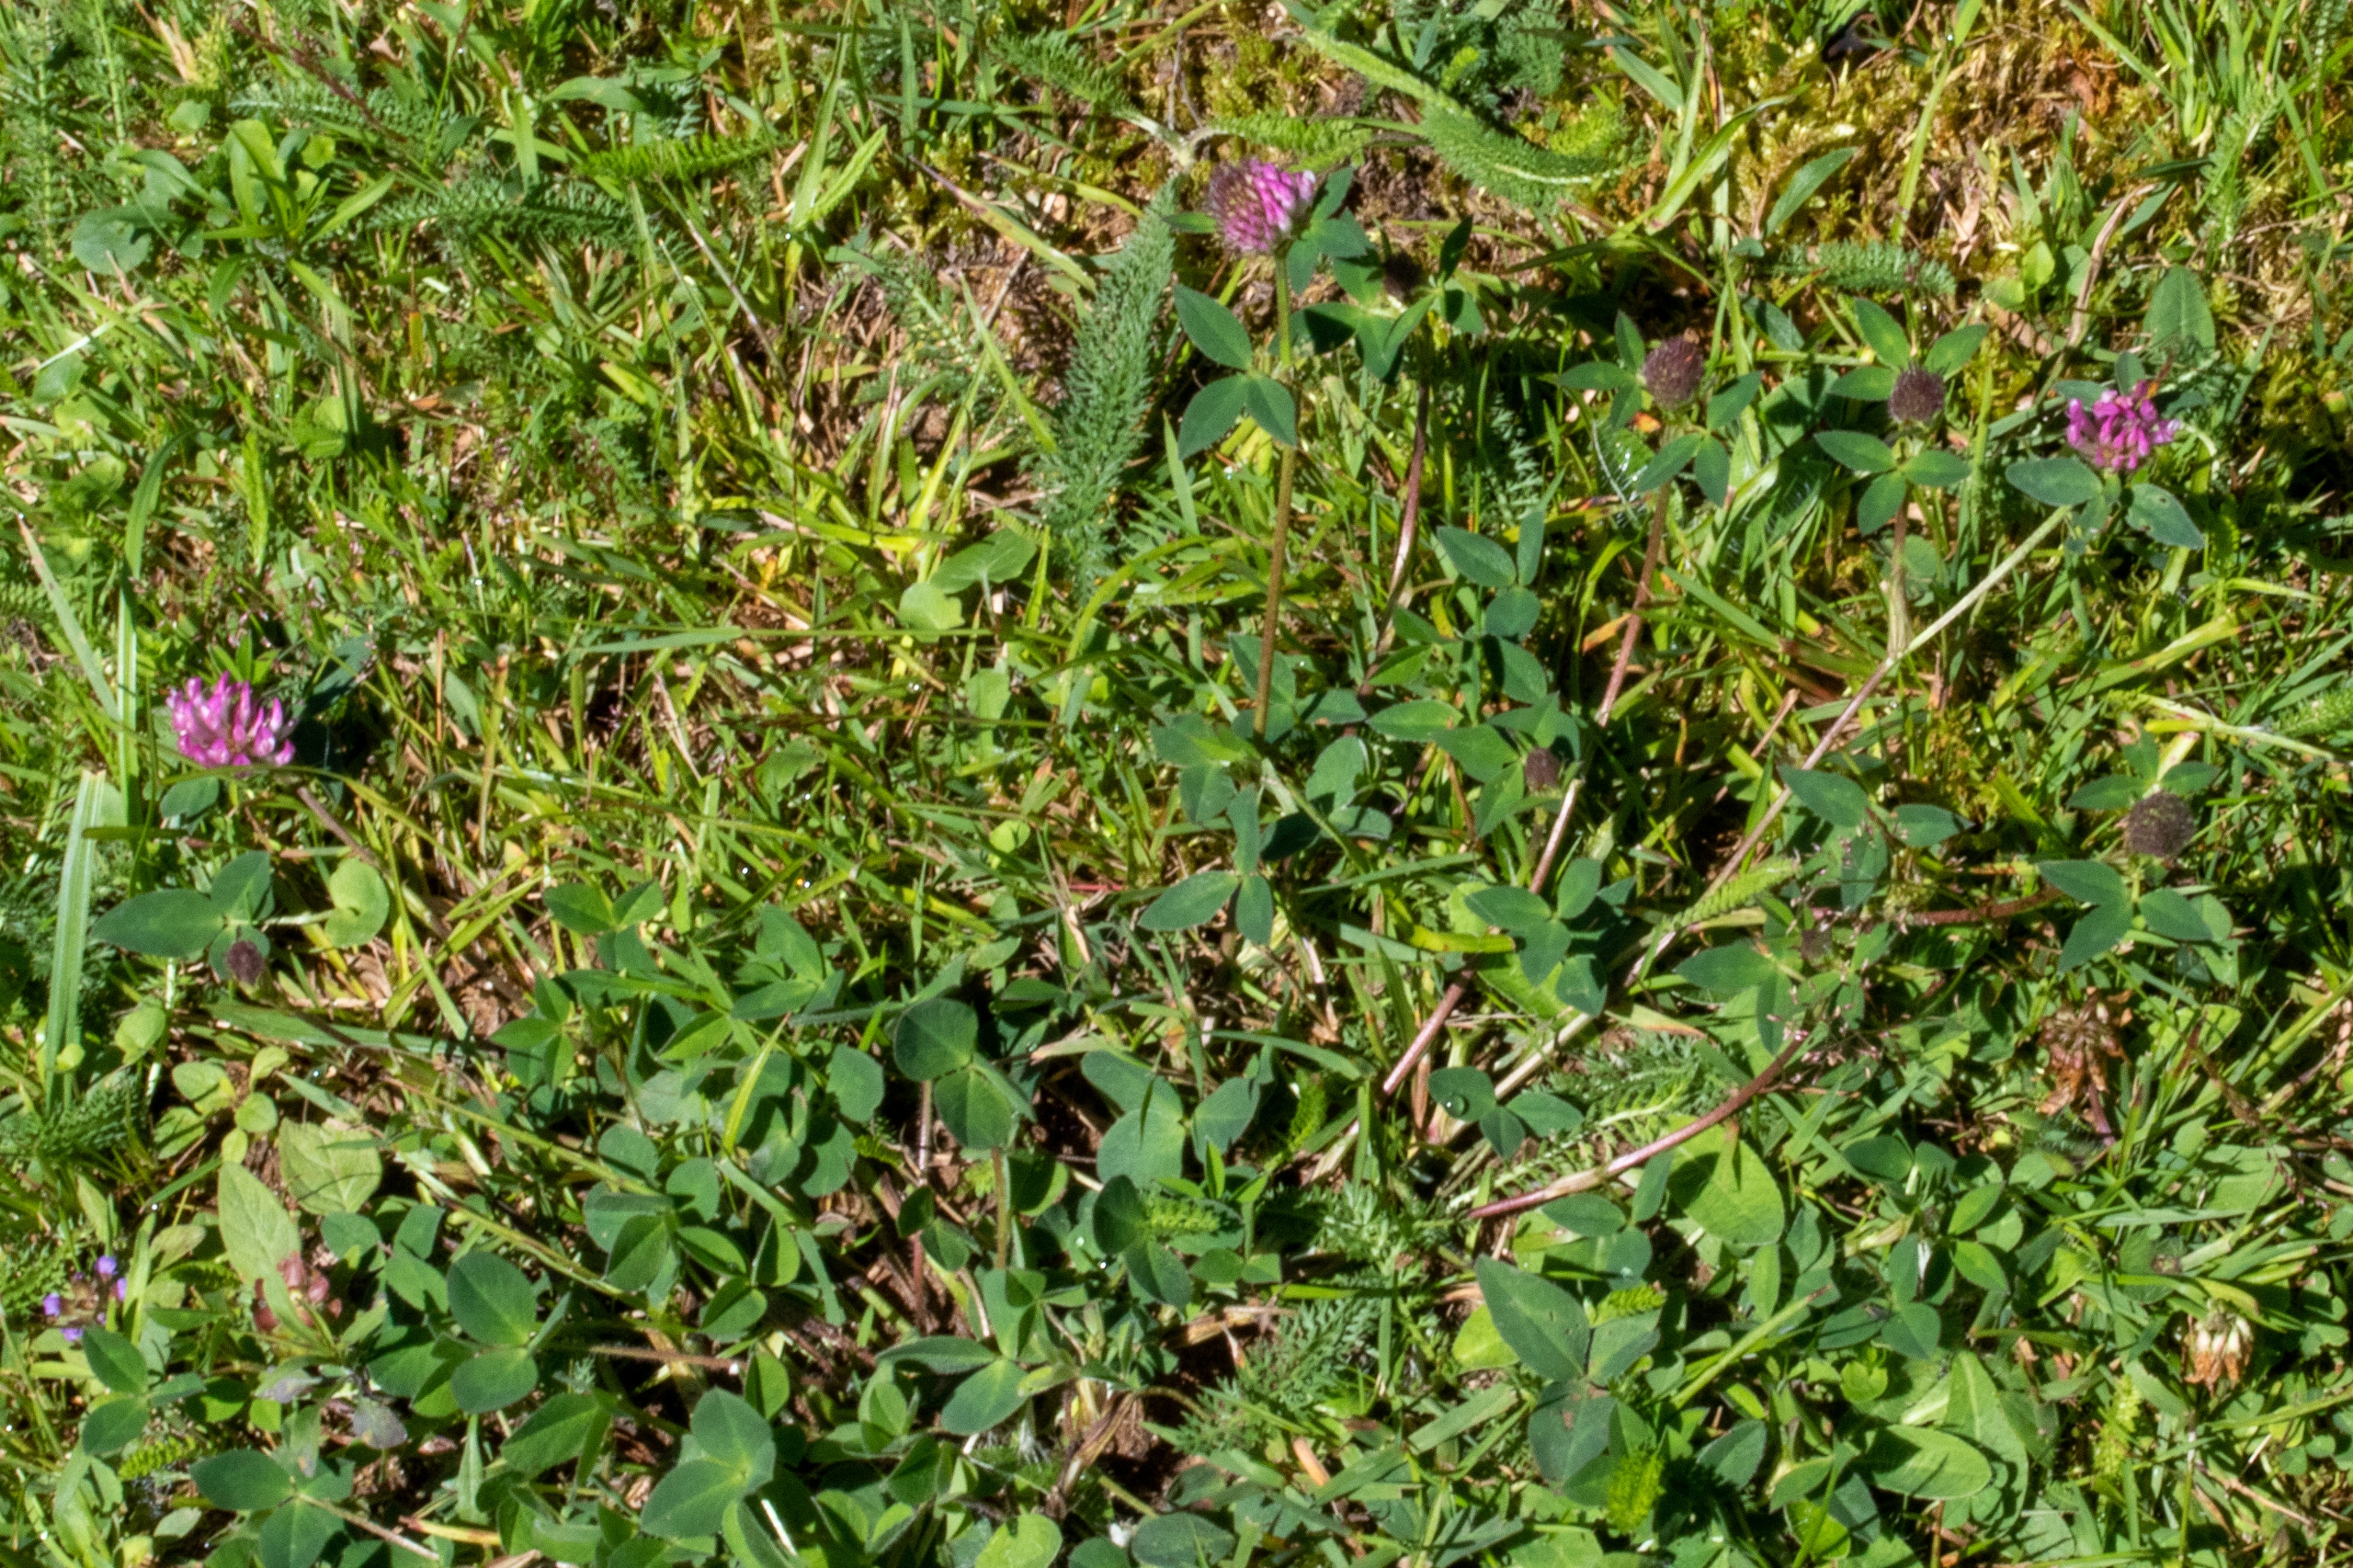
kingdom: Plantae
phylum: Tracheophyta
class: Magnoliopsida
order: Fabales
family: Fabaceae
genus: Trifolium
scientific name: Trifolium medium
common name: Bugtet kløver
